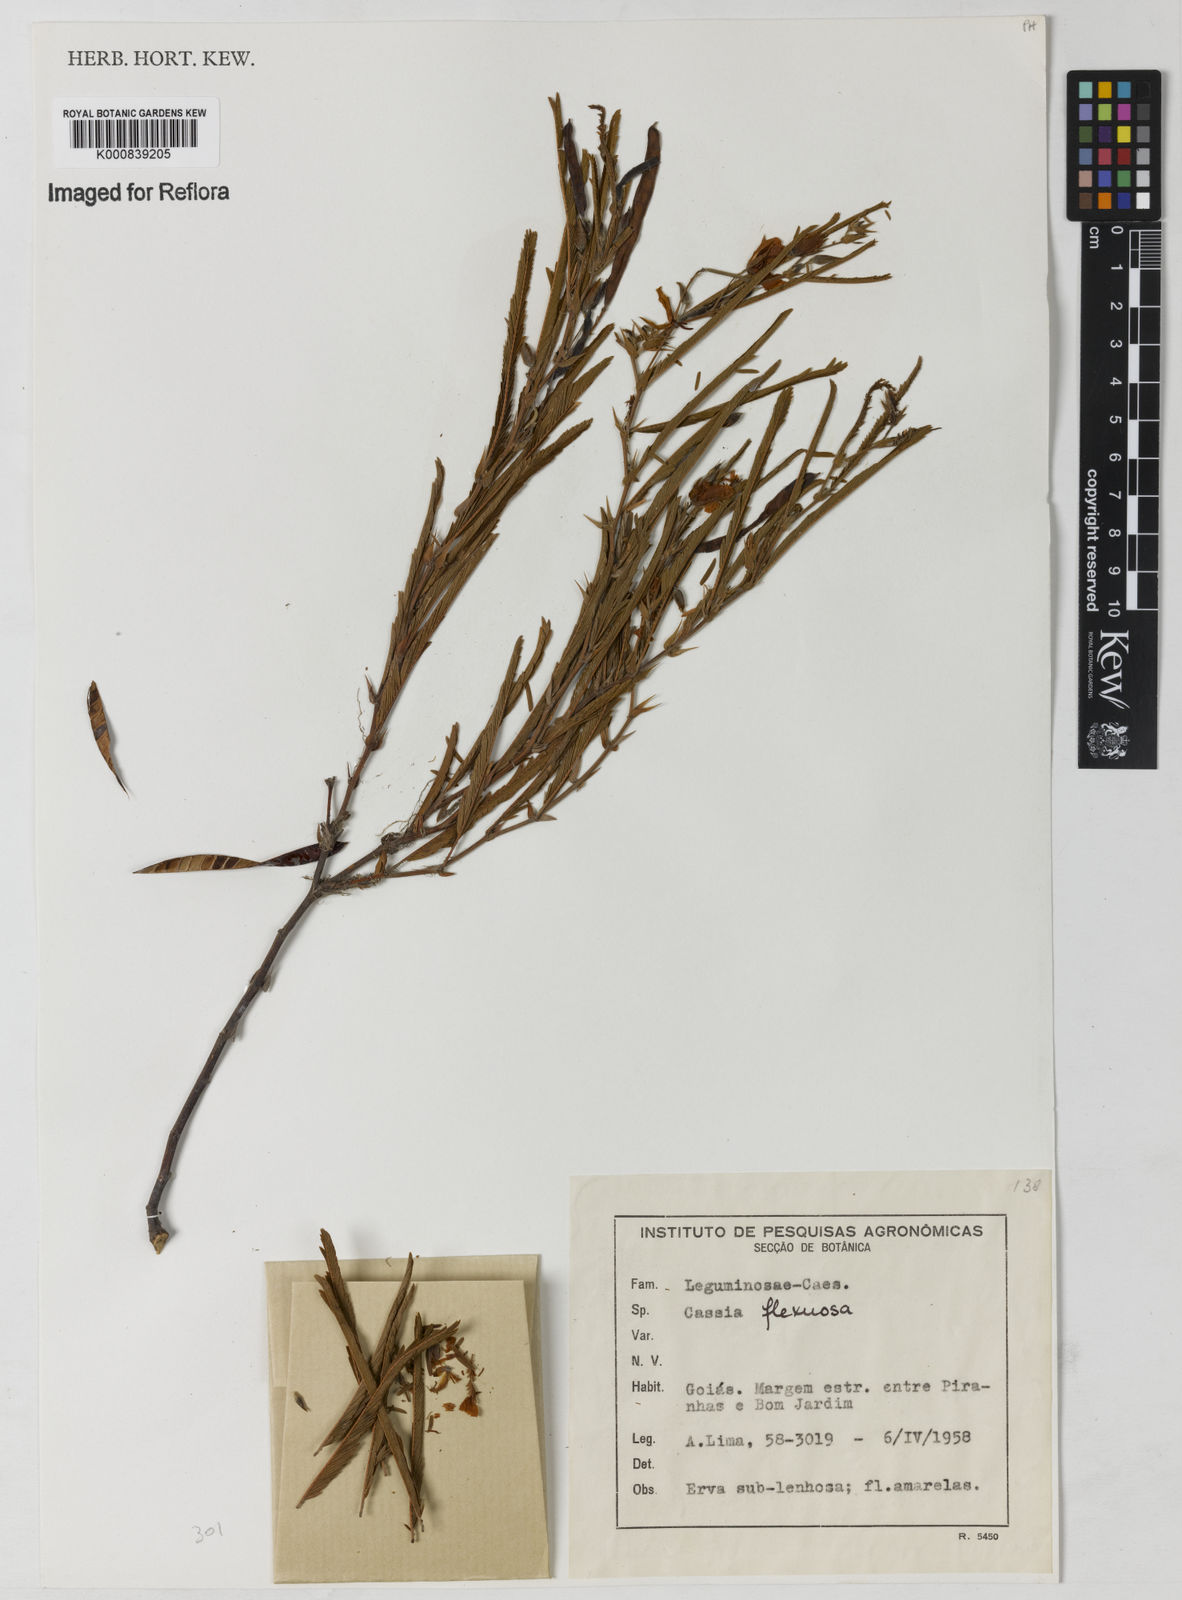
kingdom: Plantae
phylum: Tracheophyta
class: Magnoliopsida
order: Fabales
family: Fabaceae
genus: Chamaecrista
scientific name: Chamaecrista flexuosa
